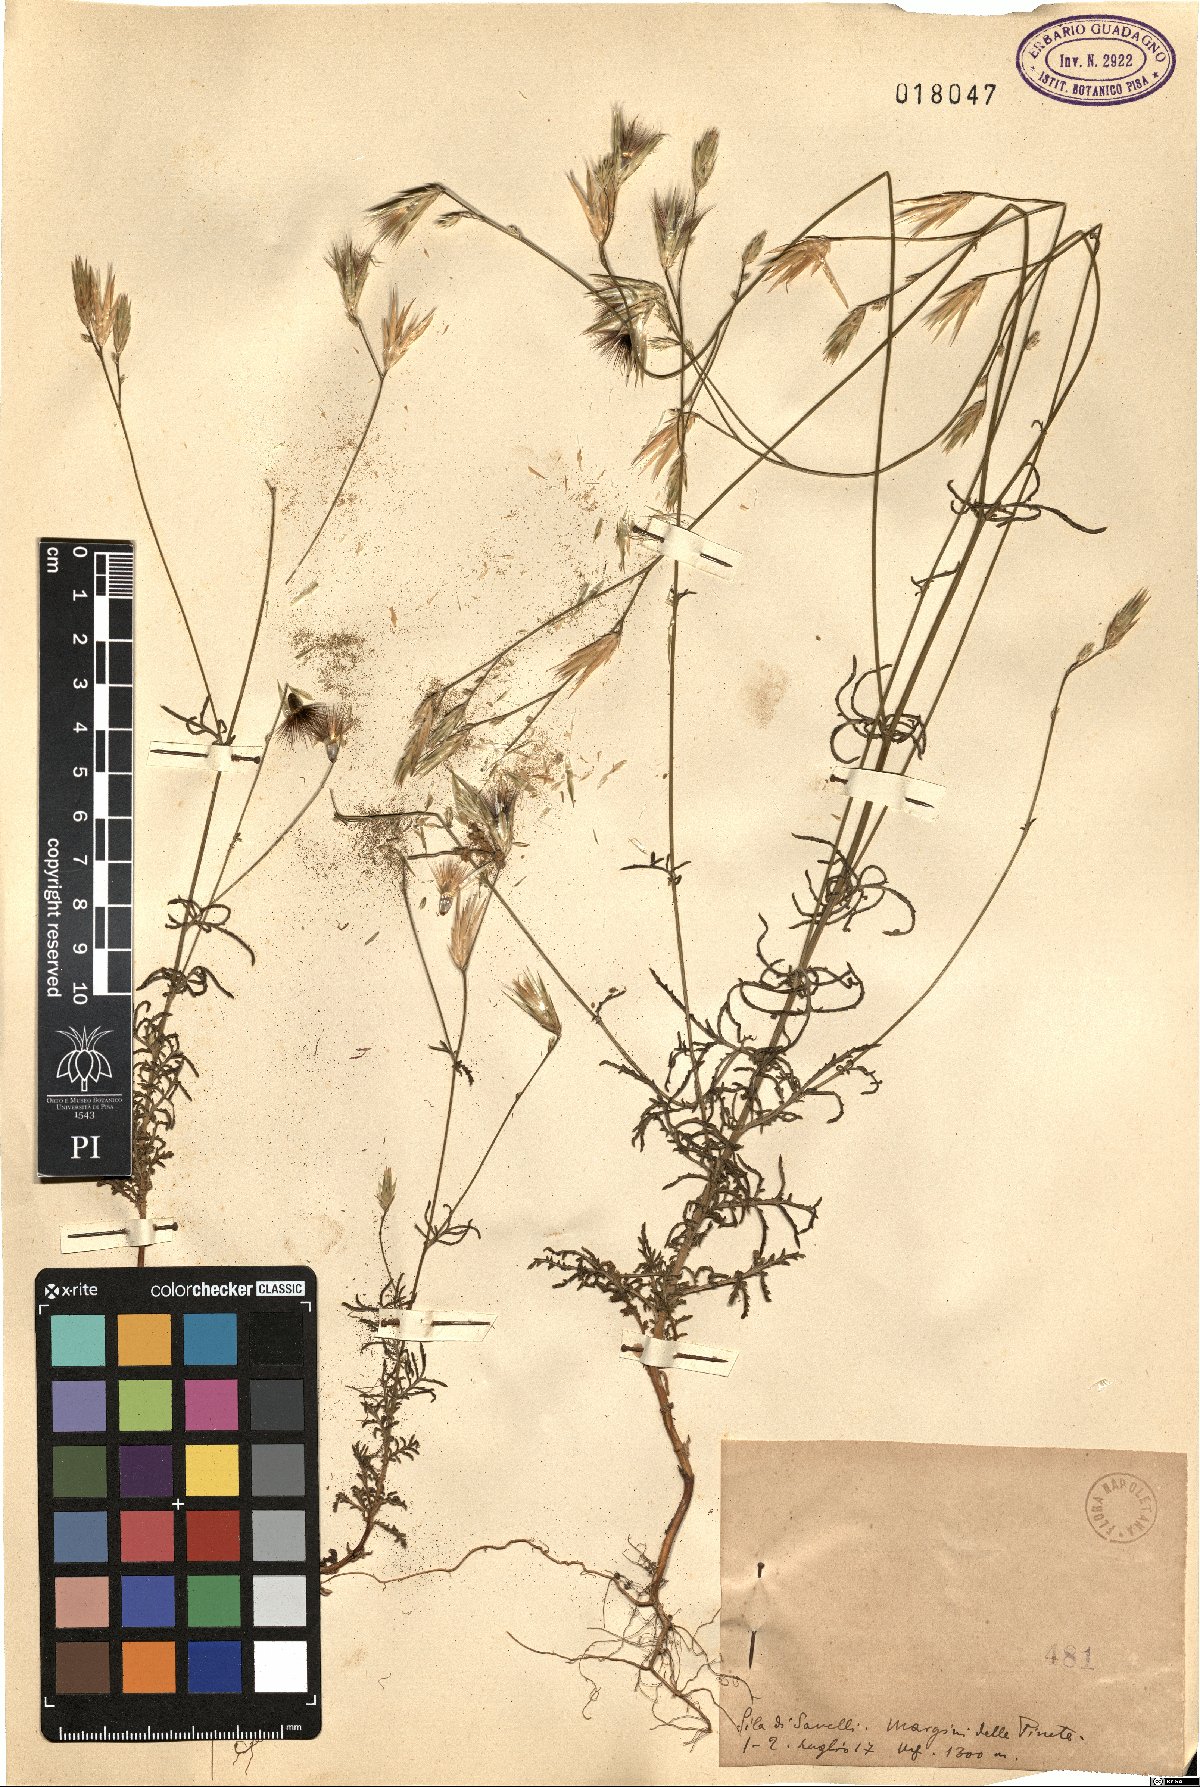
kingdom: Plantae
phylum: Tracheophyta
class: Magnoliopsida
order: Asterales
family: Asteraceae
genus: Crupina
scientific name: Crupina
